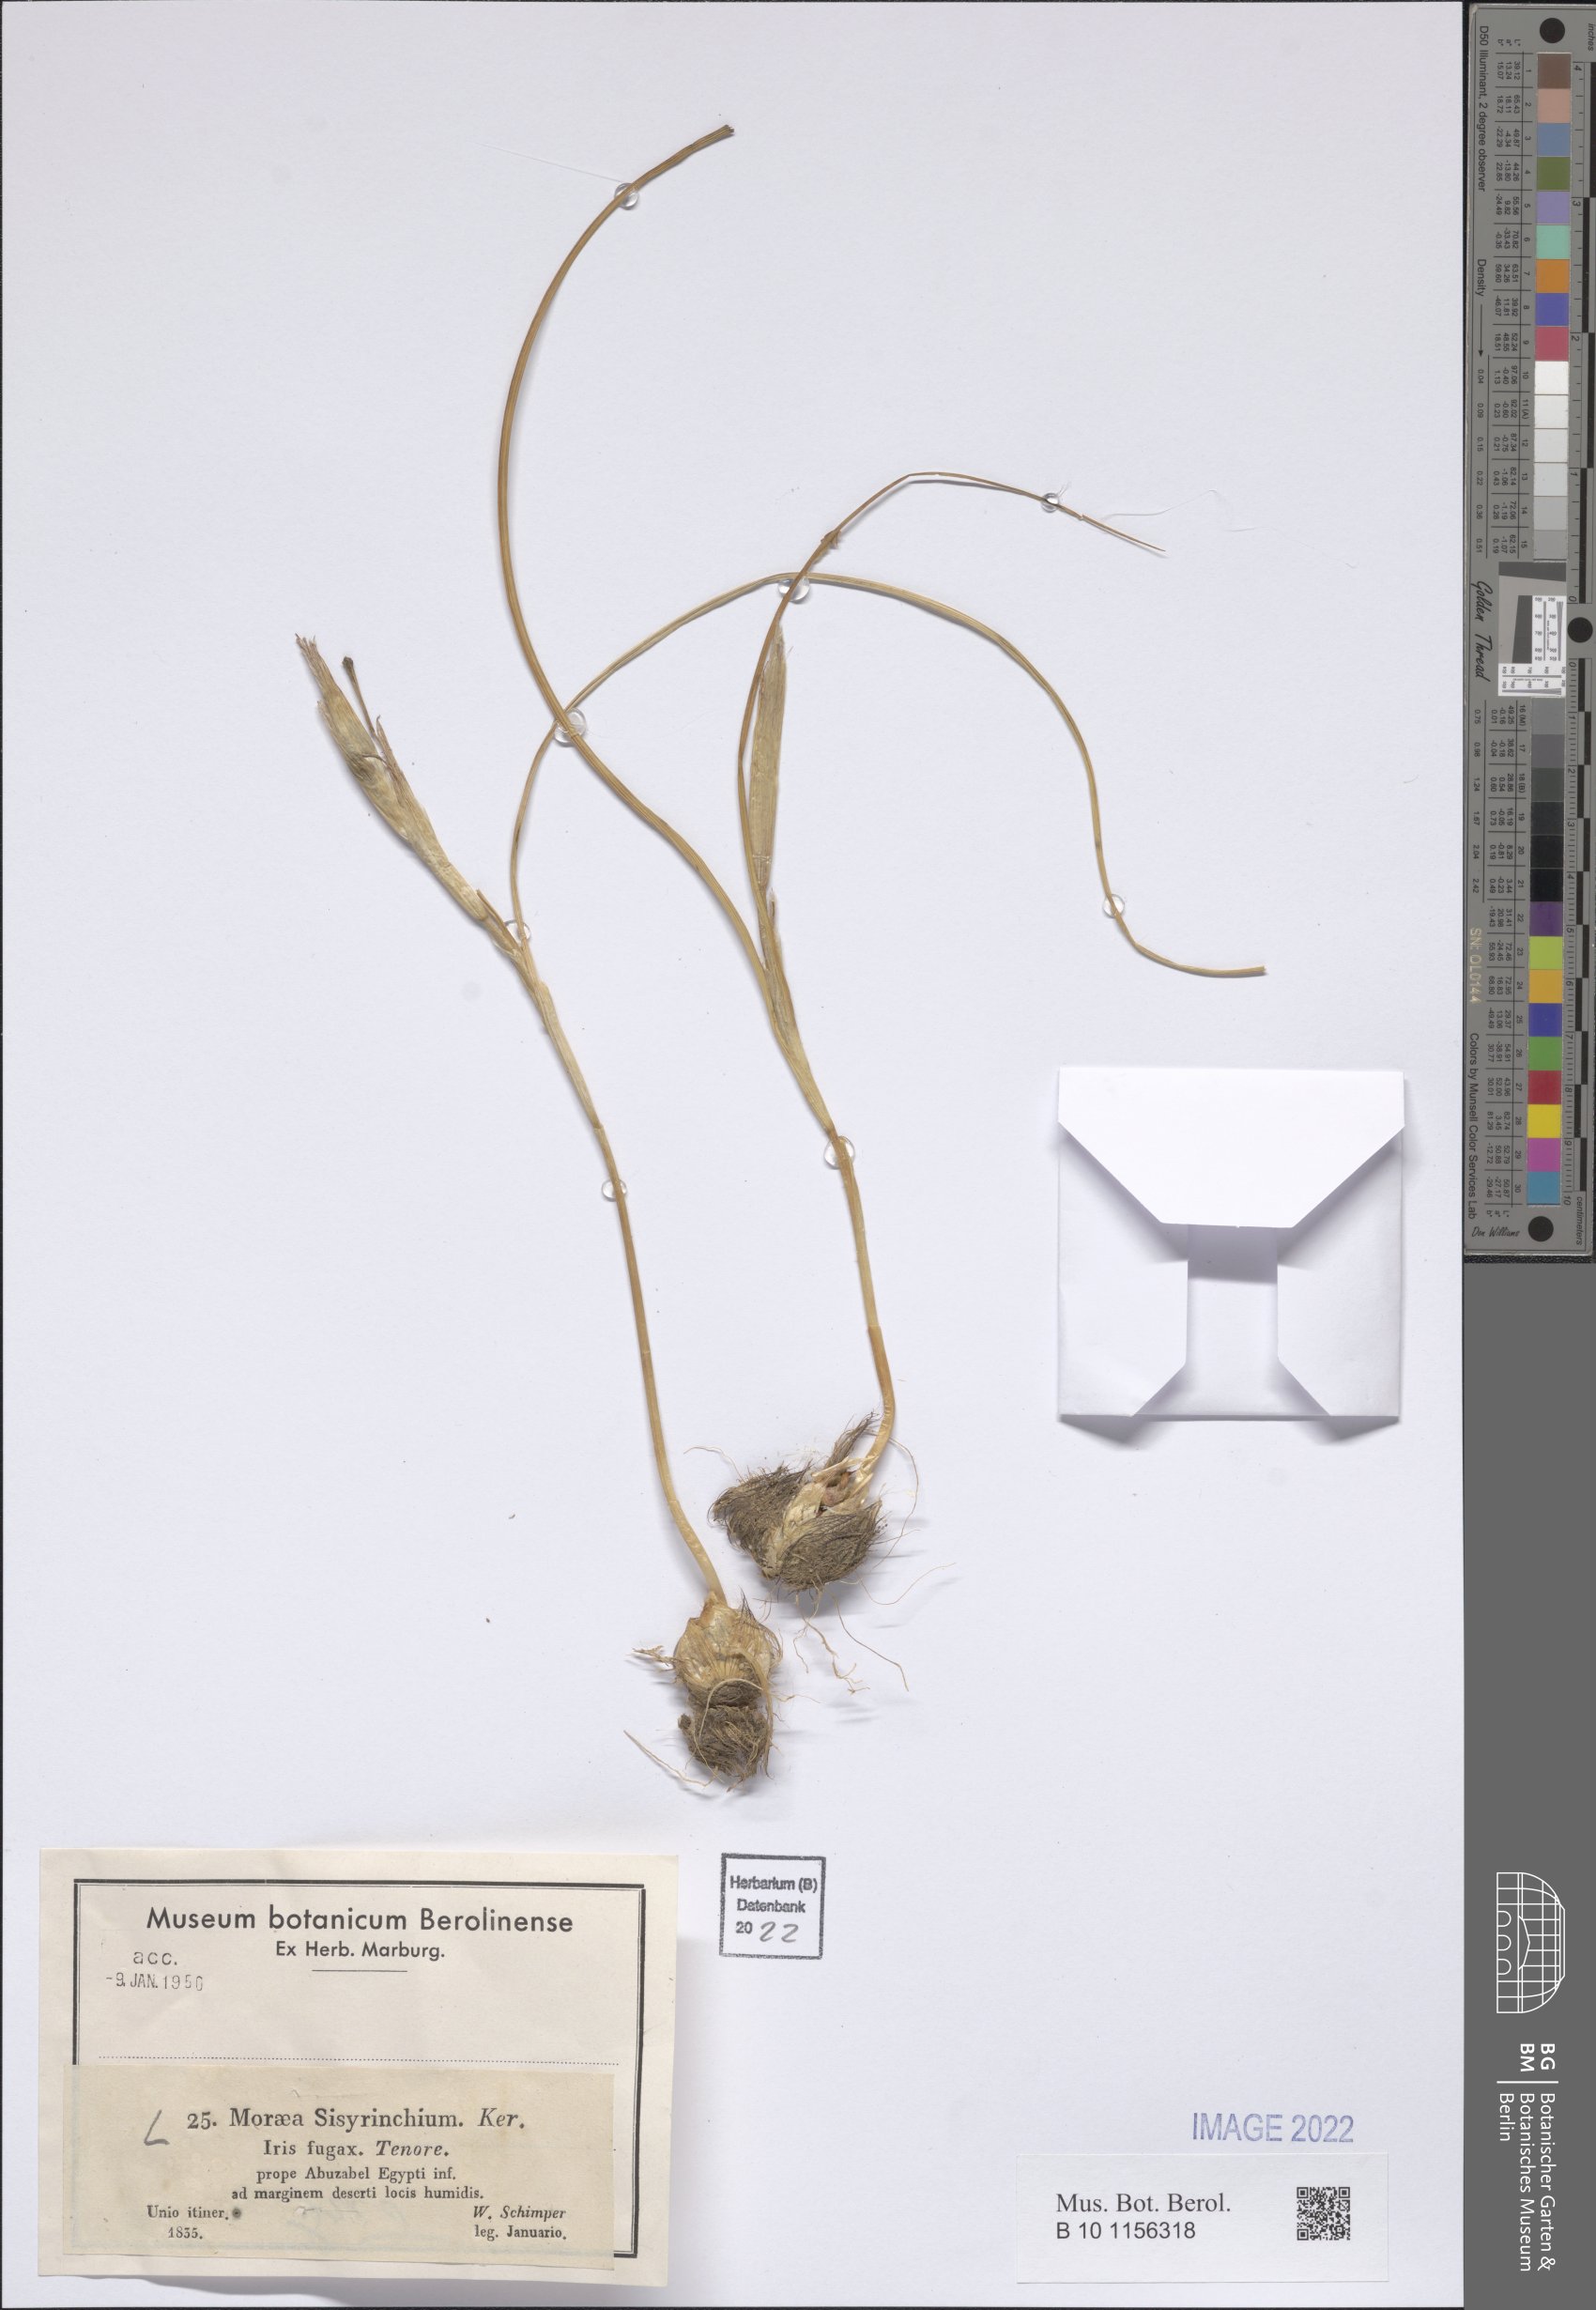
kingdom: Plantae
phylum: Tracheophyta
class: Liliopsida
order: Asparagales
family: Iridaceae
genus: Moraea
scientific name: Moraea sisyrinchium
